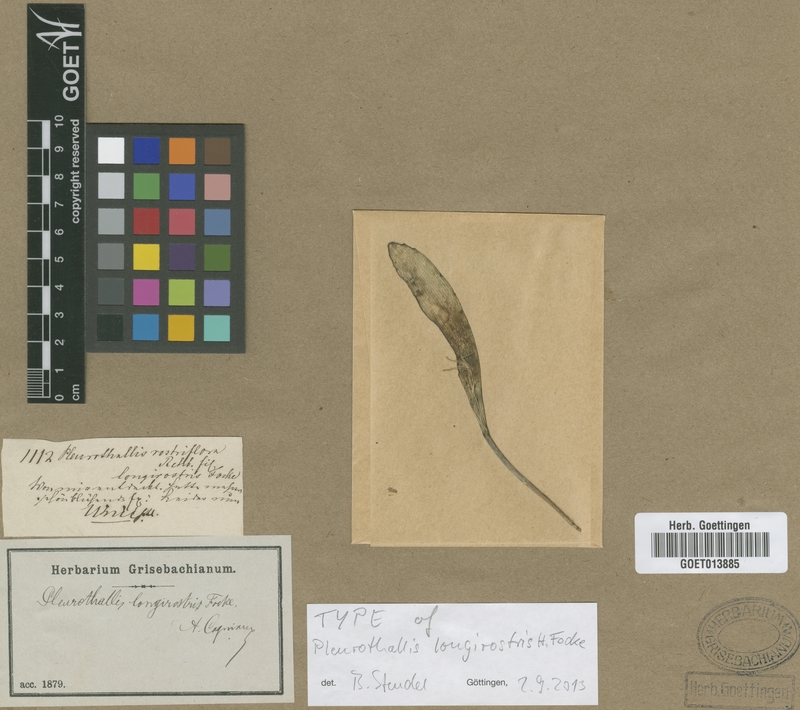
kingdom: Plantae
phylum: Tracheophyta
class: Liliopsida
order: Asparagales
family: Orchidaceae
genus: Pabstiella
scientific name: Pabstiella ephemera
